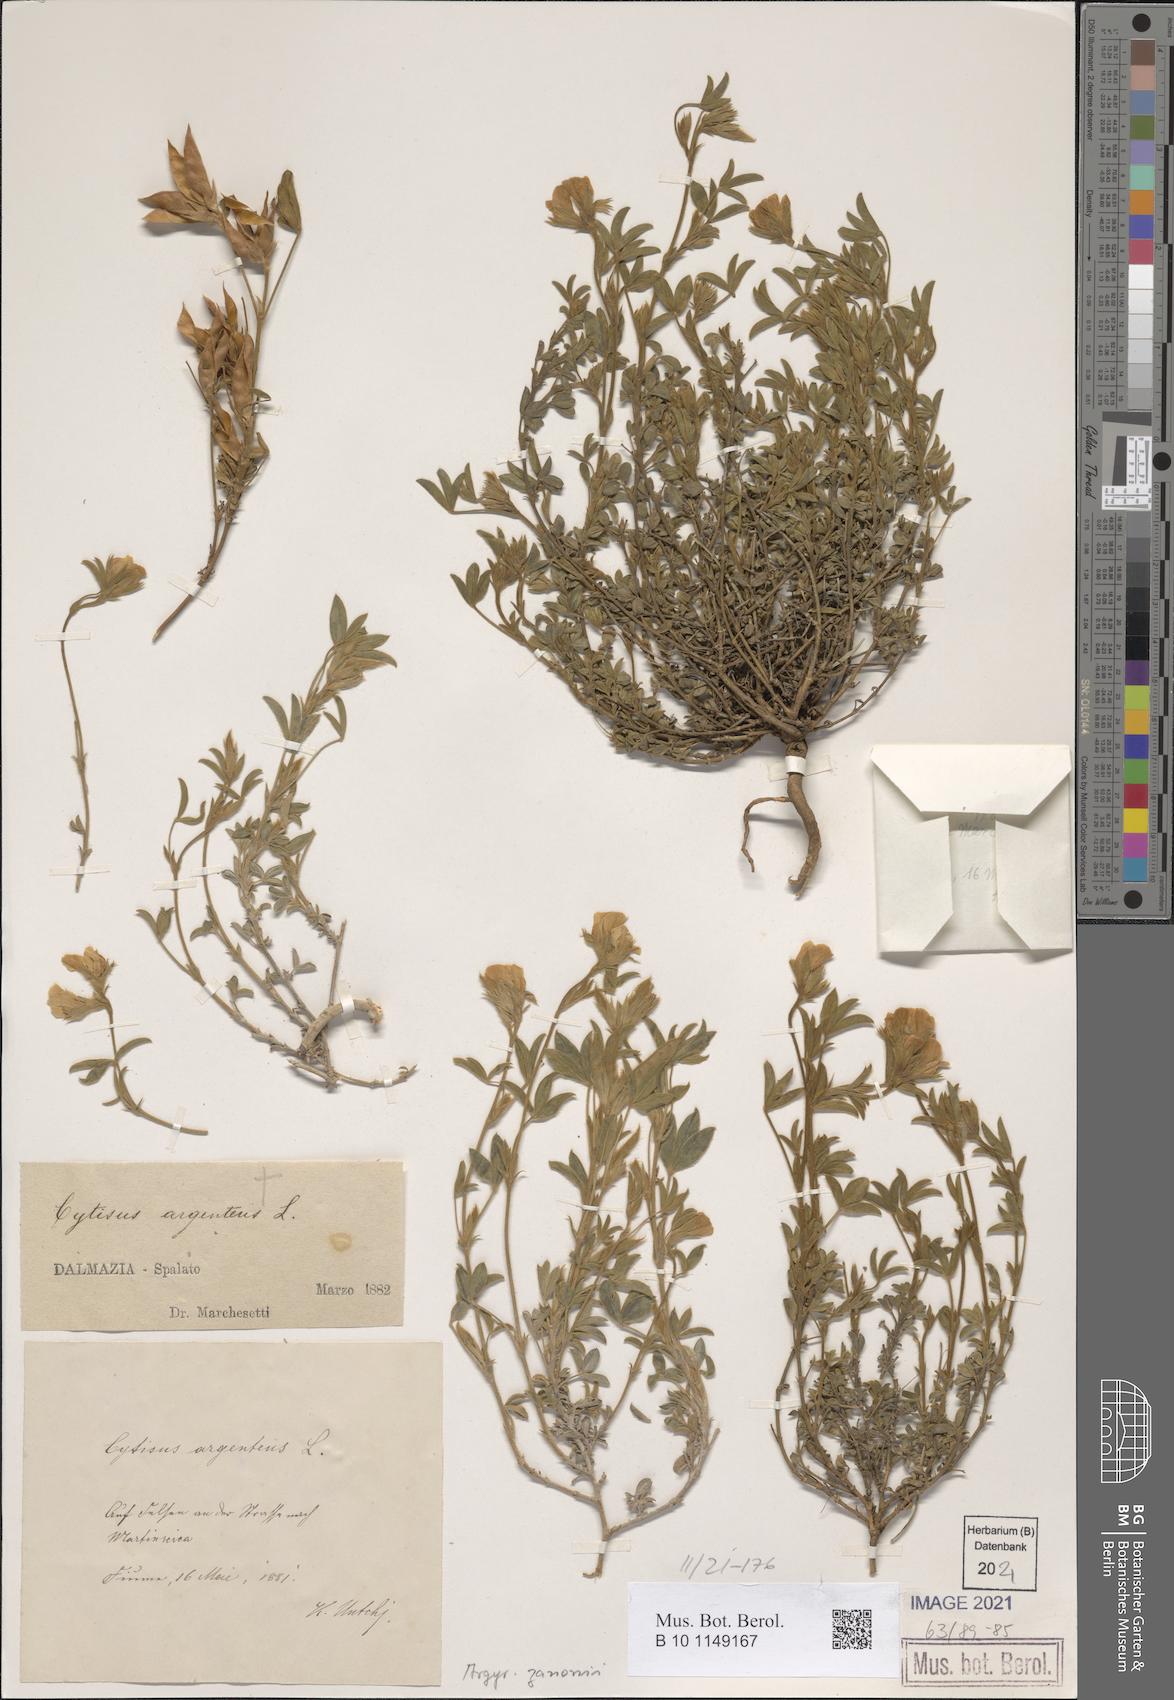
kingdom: Plantae
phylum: Tracheophyta
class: Magnoliopsida
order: Fabales
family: Fabaceae
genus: Argyrolobium
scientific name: Argyrolobium zanonii
